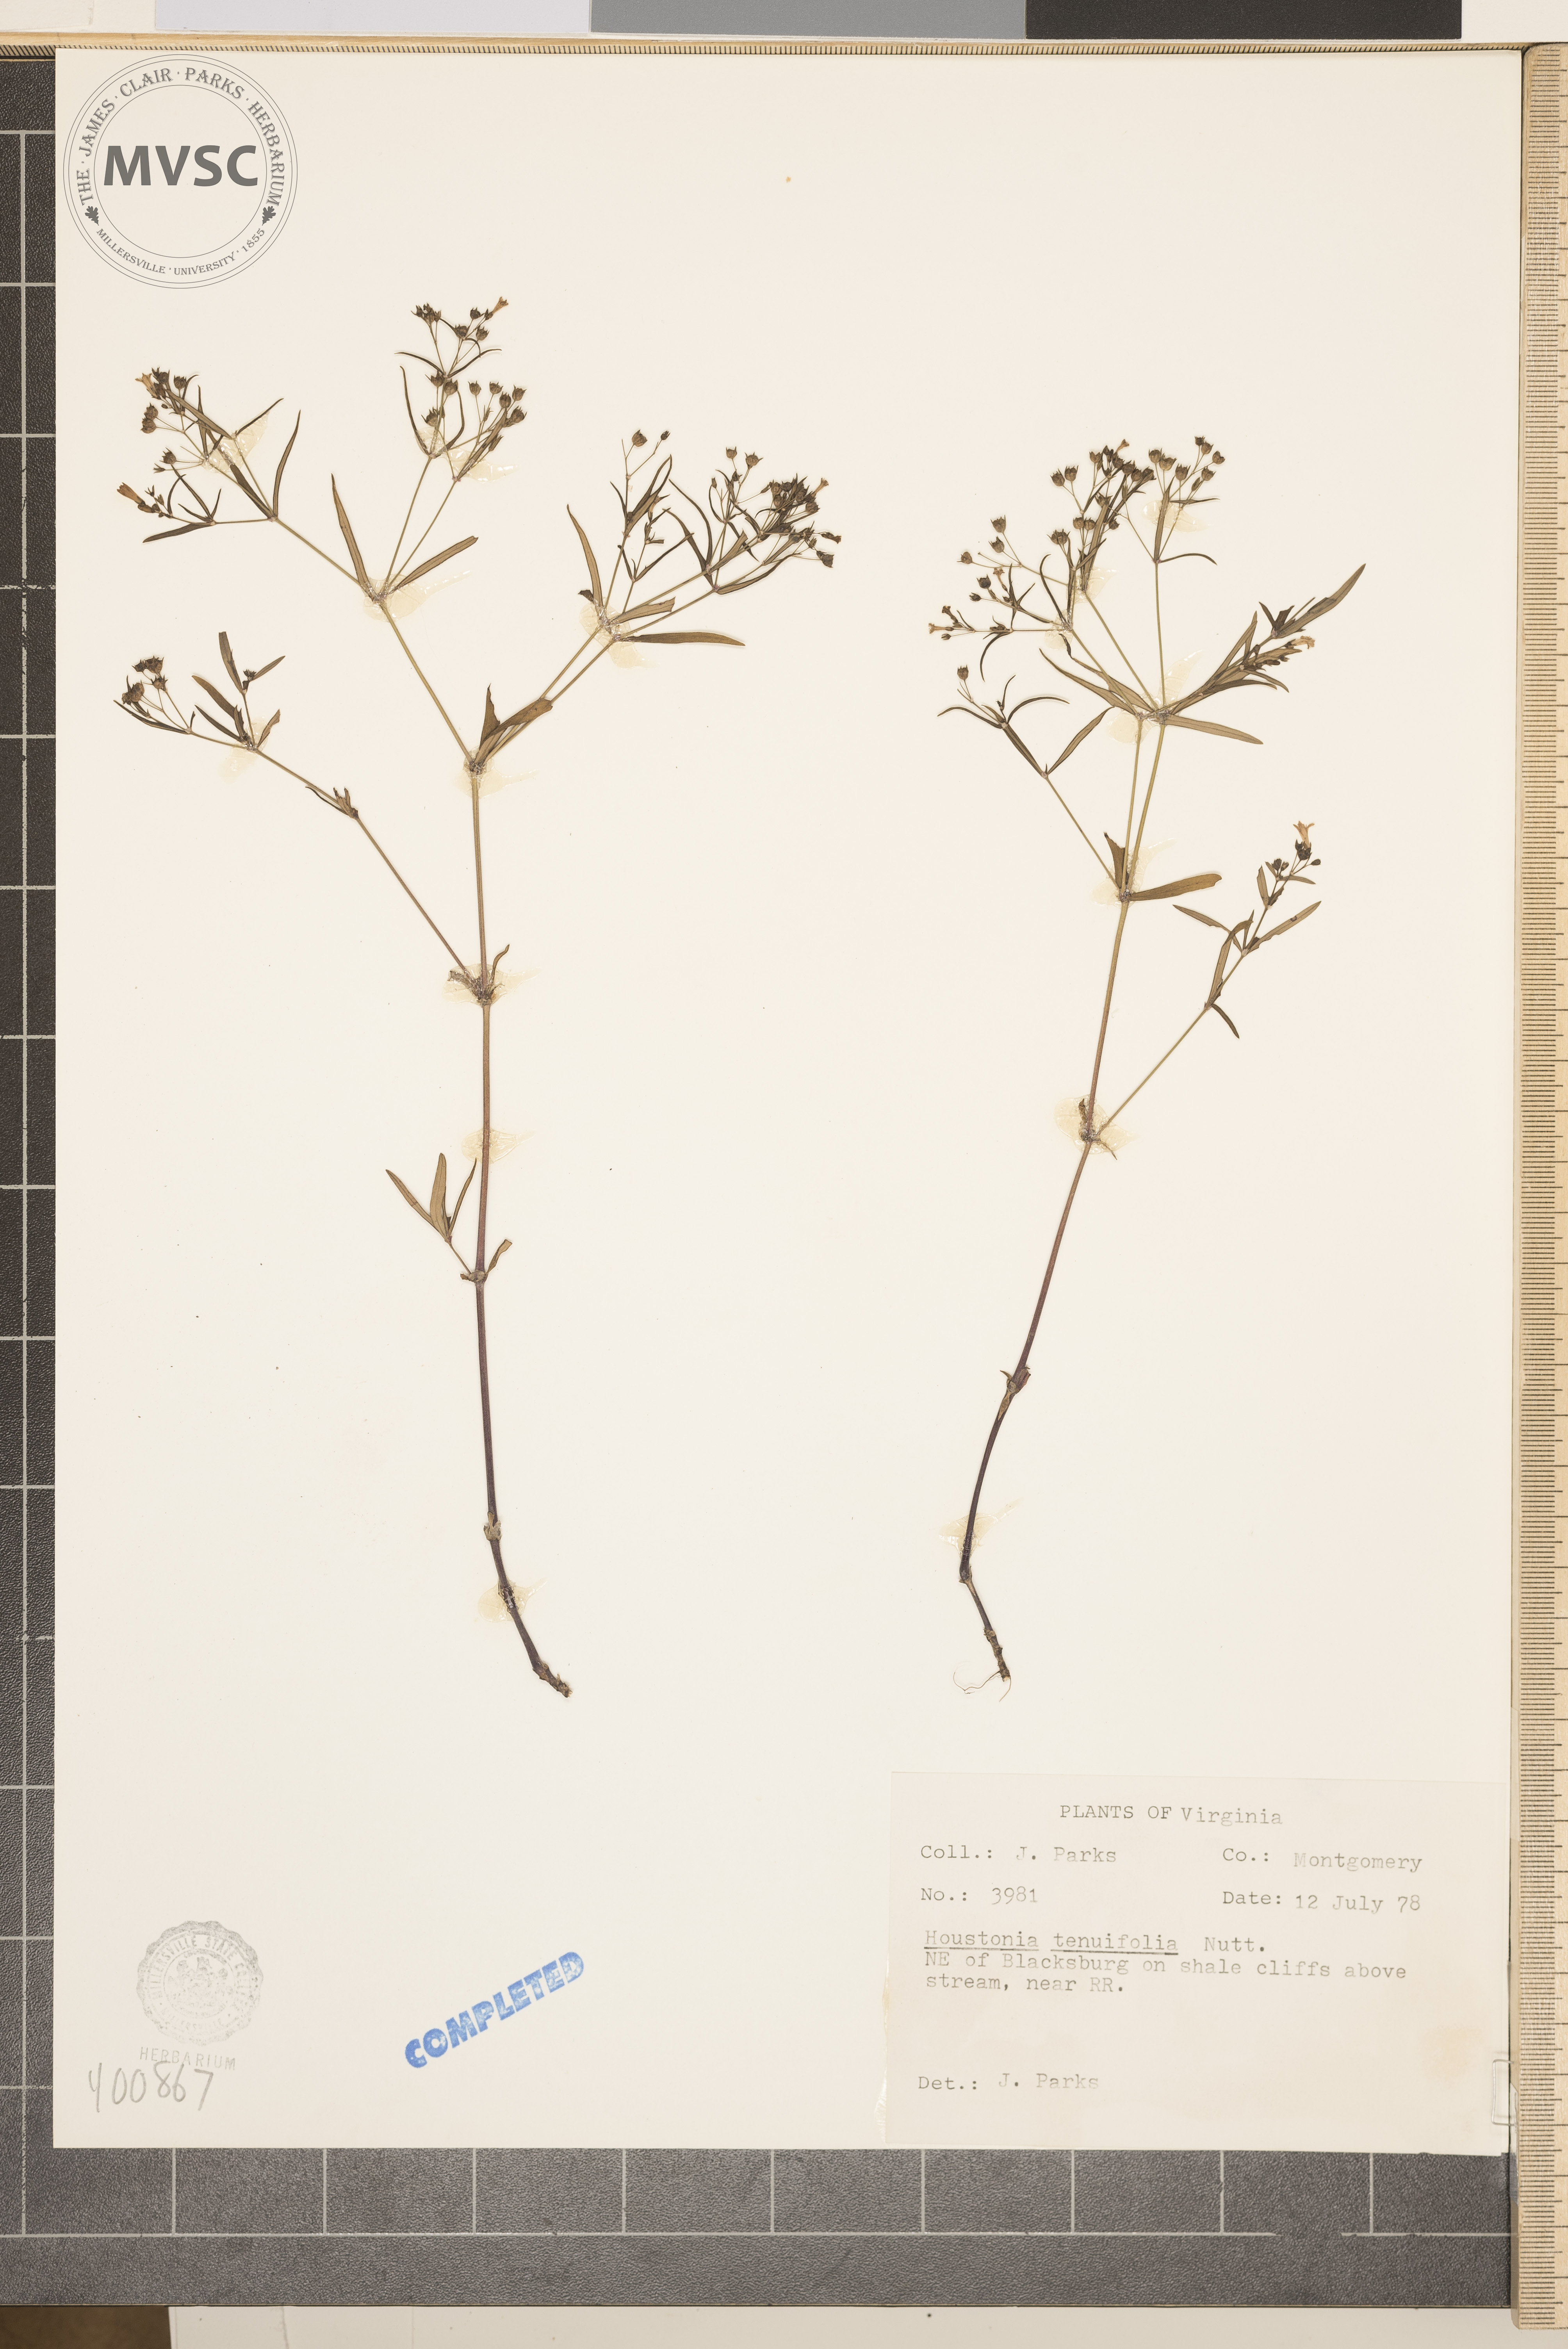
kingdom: Plantae
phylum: Tracheophyta
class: Magnoliopsida
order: Gentianales
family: Rubiaceae
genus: Houstonia
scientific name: Houstonia longifolia
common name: bluets
